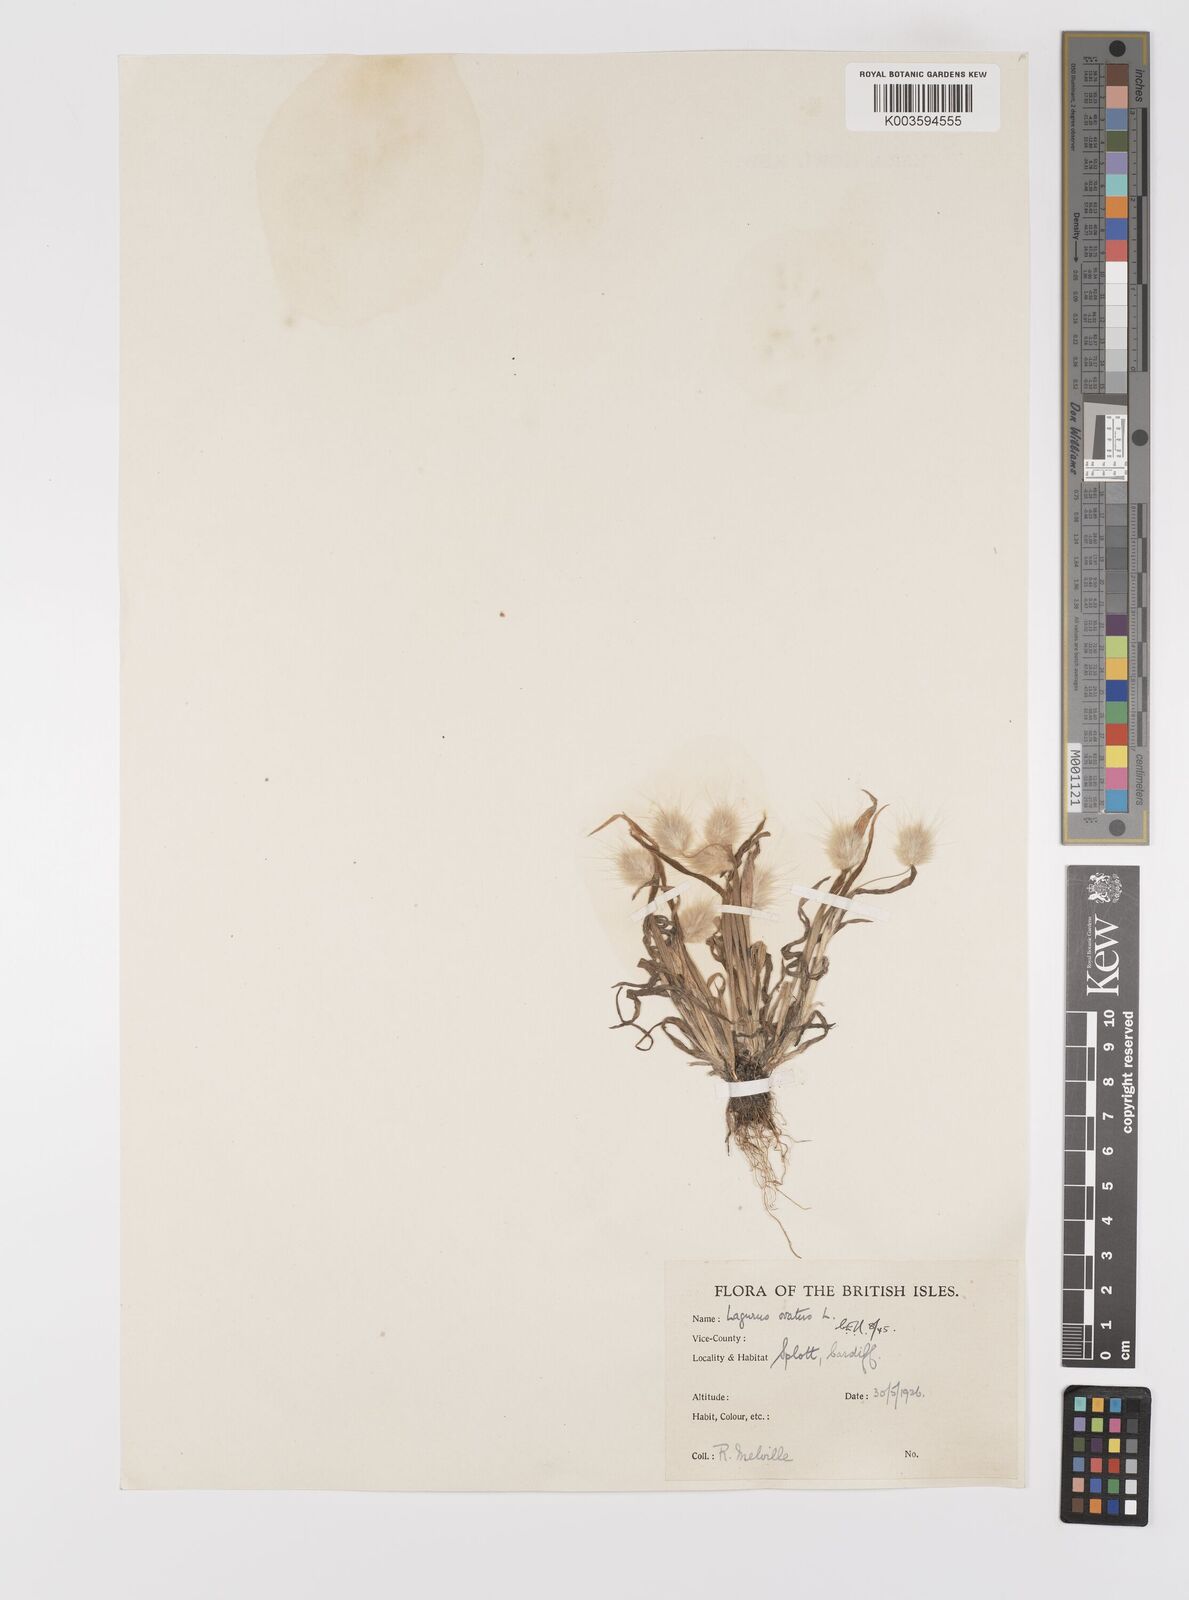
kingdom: Plantae
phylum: Tracheophyta
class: Liliopsida
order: Poales
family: Poaceae
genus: Lagurus
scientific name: Lagurus ovatus
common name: Hare's-tail
